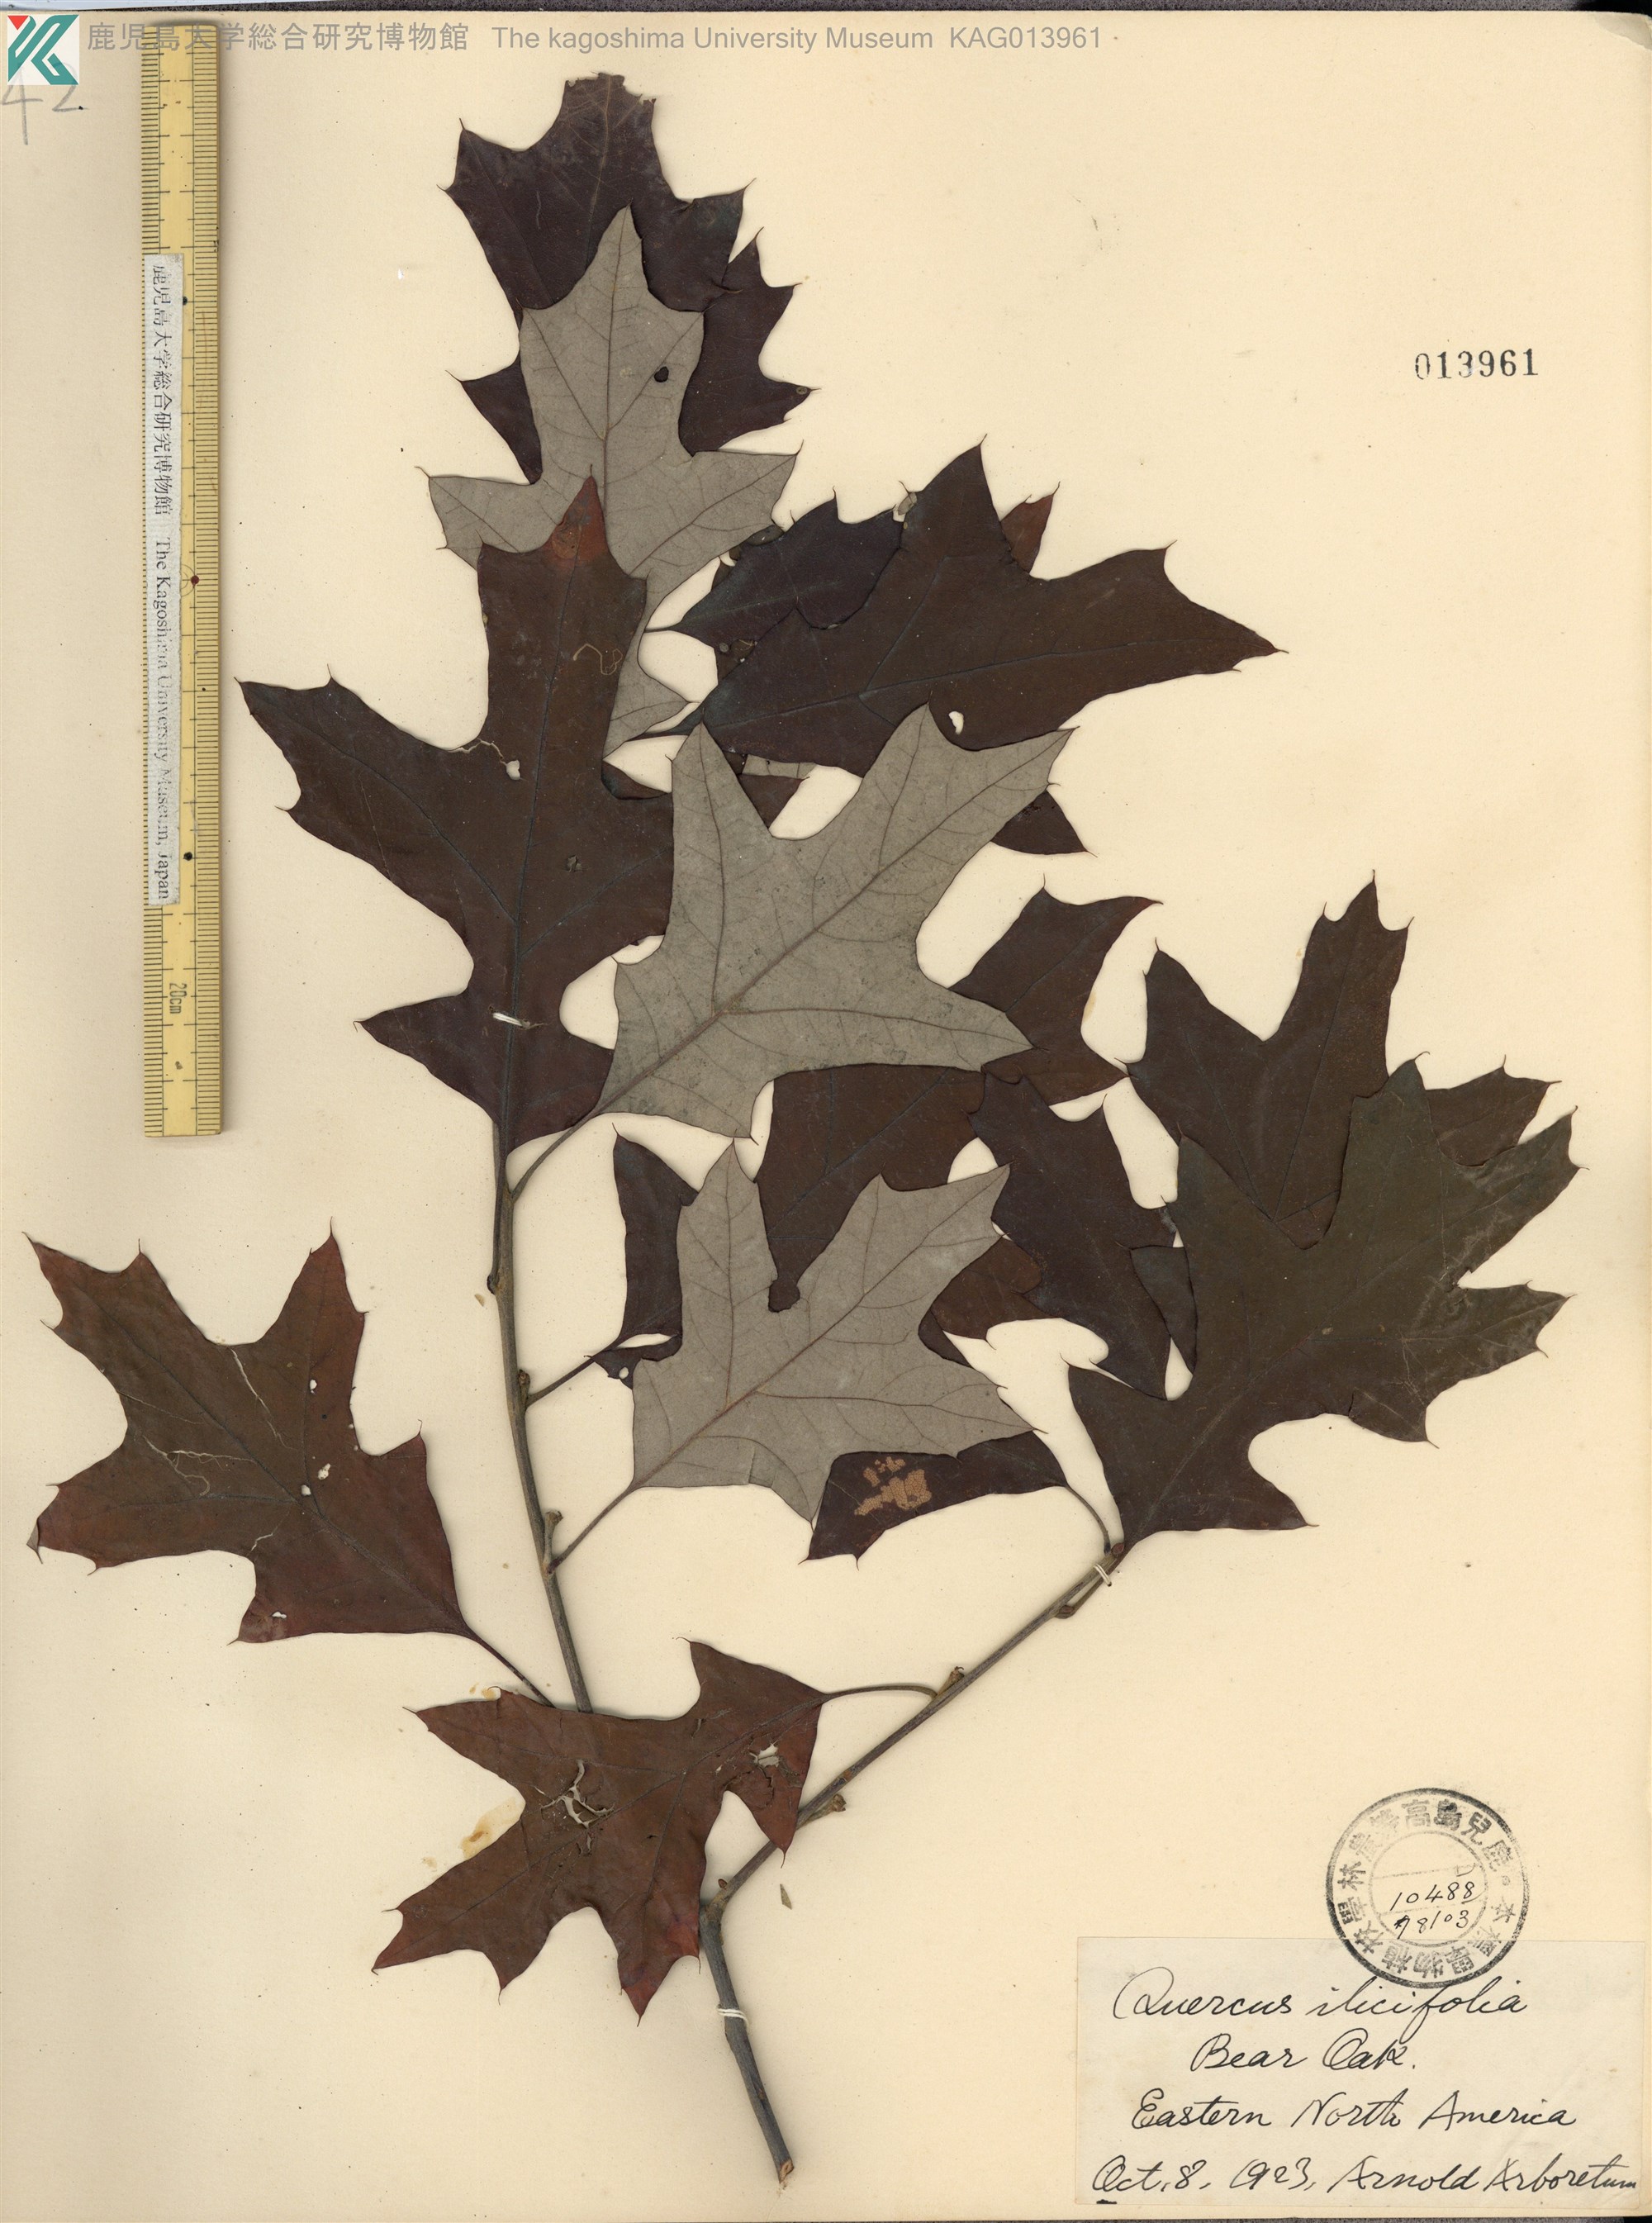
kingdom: Plantae
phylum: Tracheophyta
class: Magnoliopsida
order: Fagales
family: Fagaceae
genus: Quercus
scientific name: Quercus ilicifolia
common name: Bear oak
